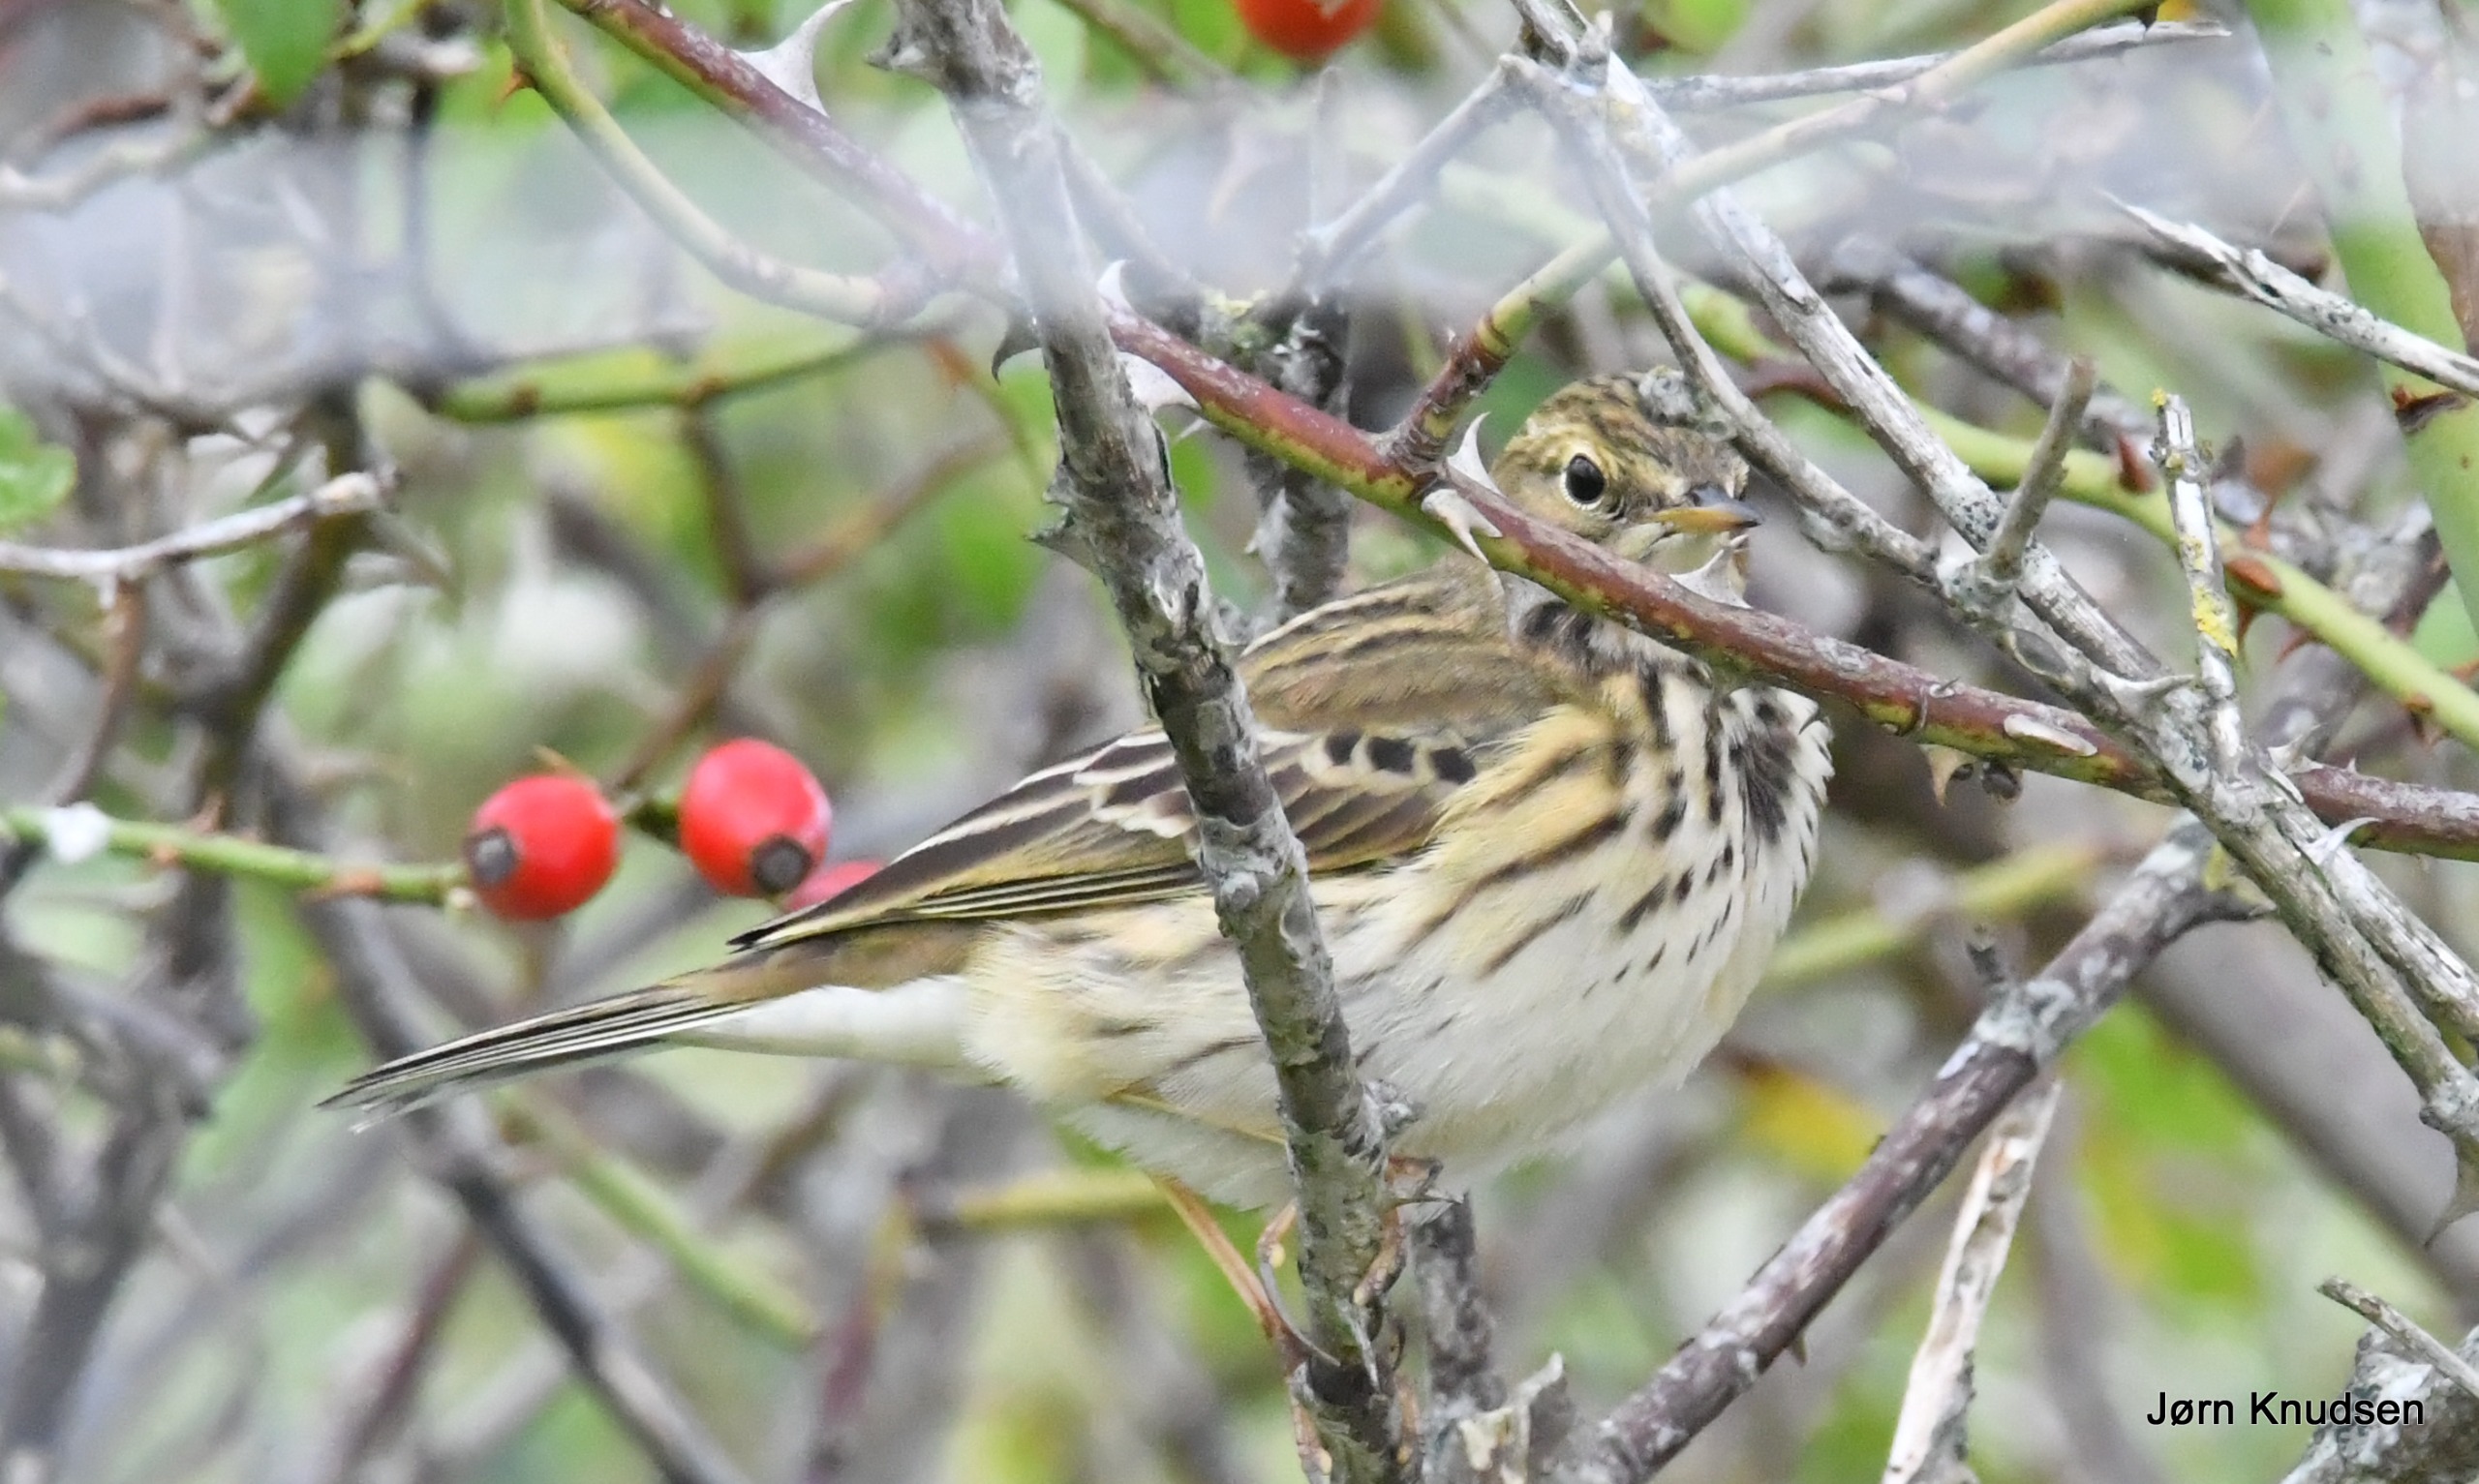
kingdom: Animalia
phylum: Chordata
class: Aves
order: Passeriformes
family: Motacillidae
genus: Anthus
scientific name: Anthus pratensis
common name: Engpiber
